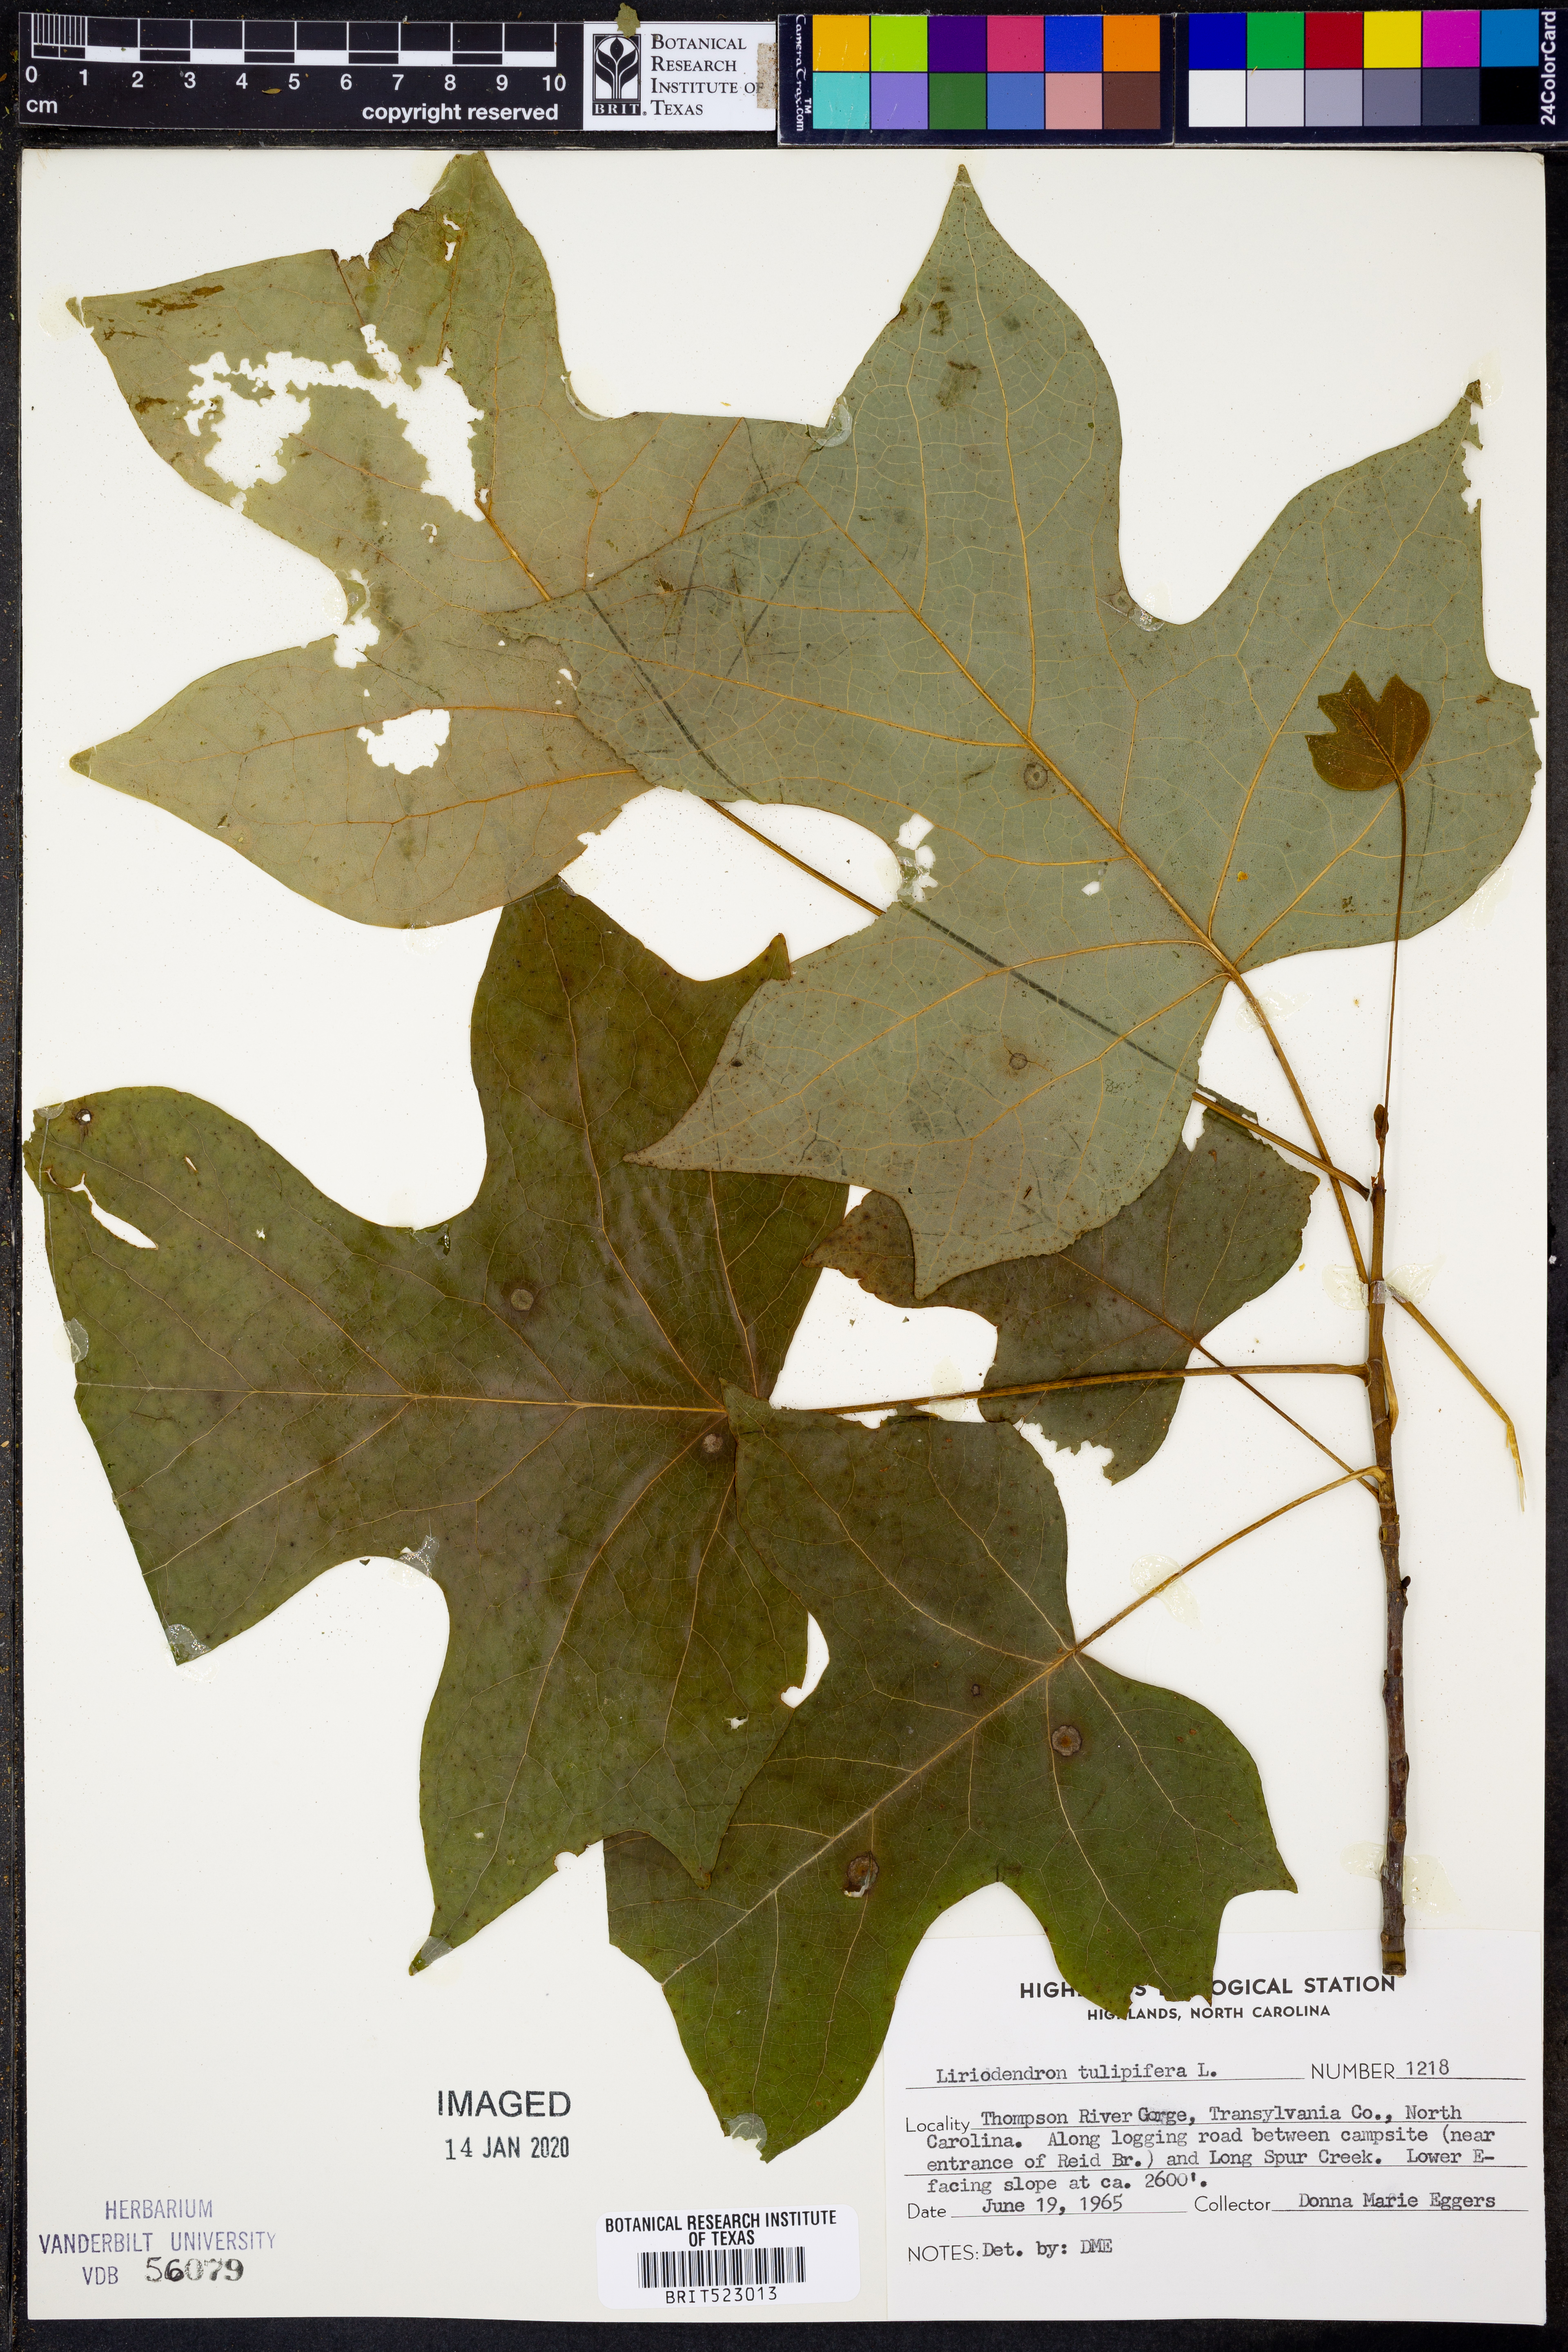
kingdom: Plantae
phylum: Tracheophyta
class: Magnoliopsida
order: Magnoliales
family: Magnoliaceae
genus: Liriodendron
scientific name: Liriodendron tulipifera
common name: Tulip tree
